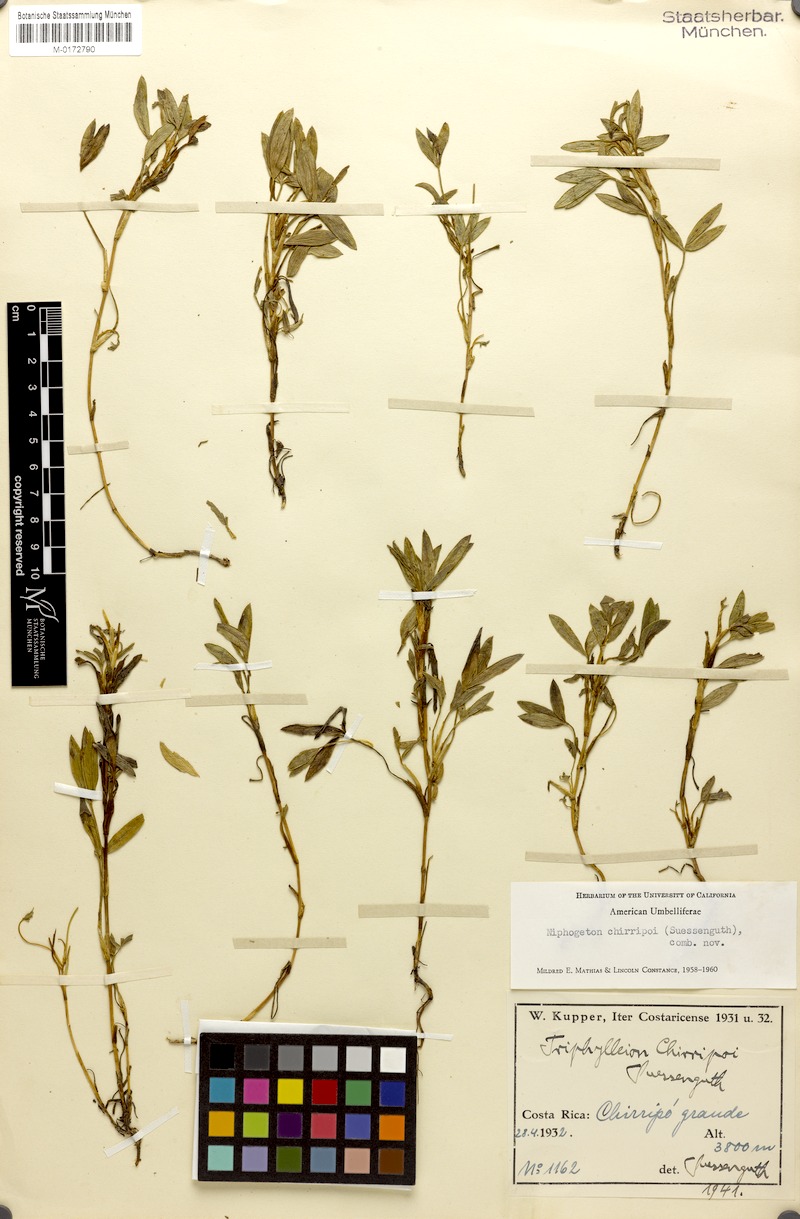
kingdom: Plantae
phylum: Tracheophyta
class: Magnoliopsida
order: Apiales
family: Apiaceae
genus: Niphogeton
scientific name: Niphogeton chirripoi
